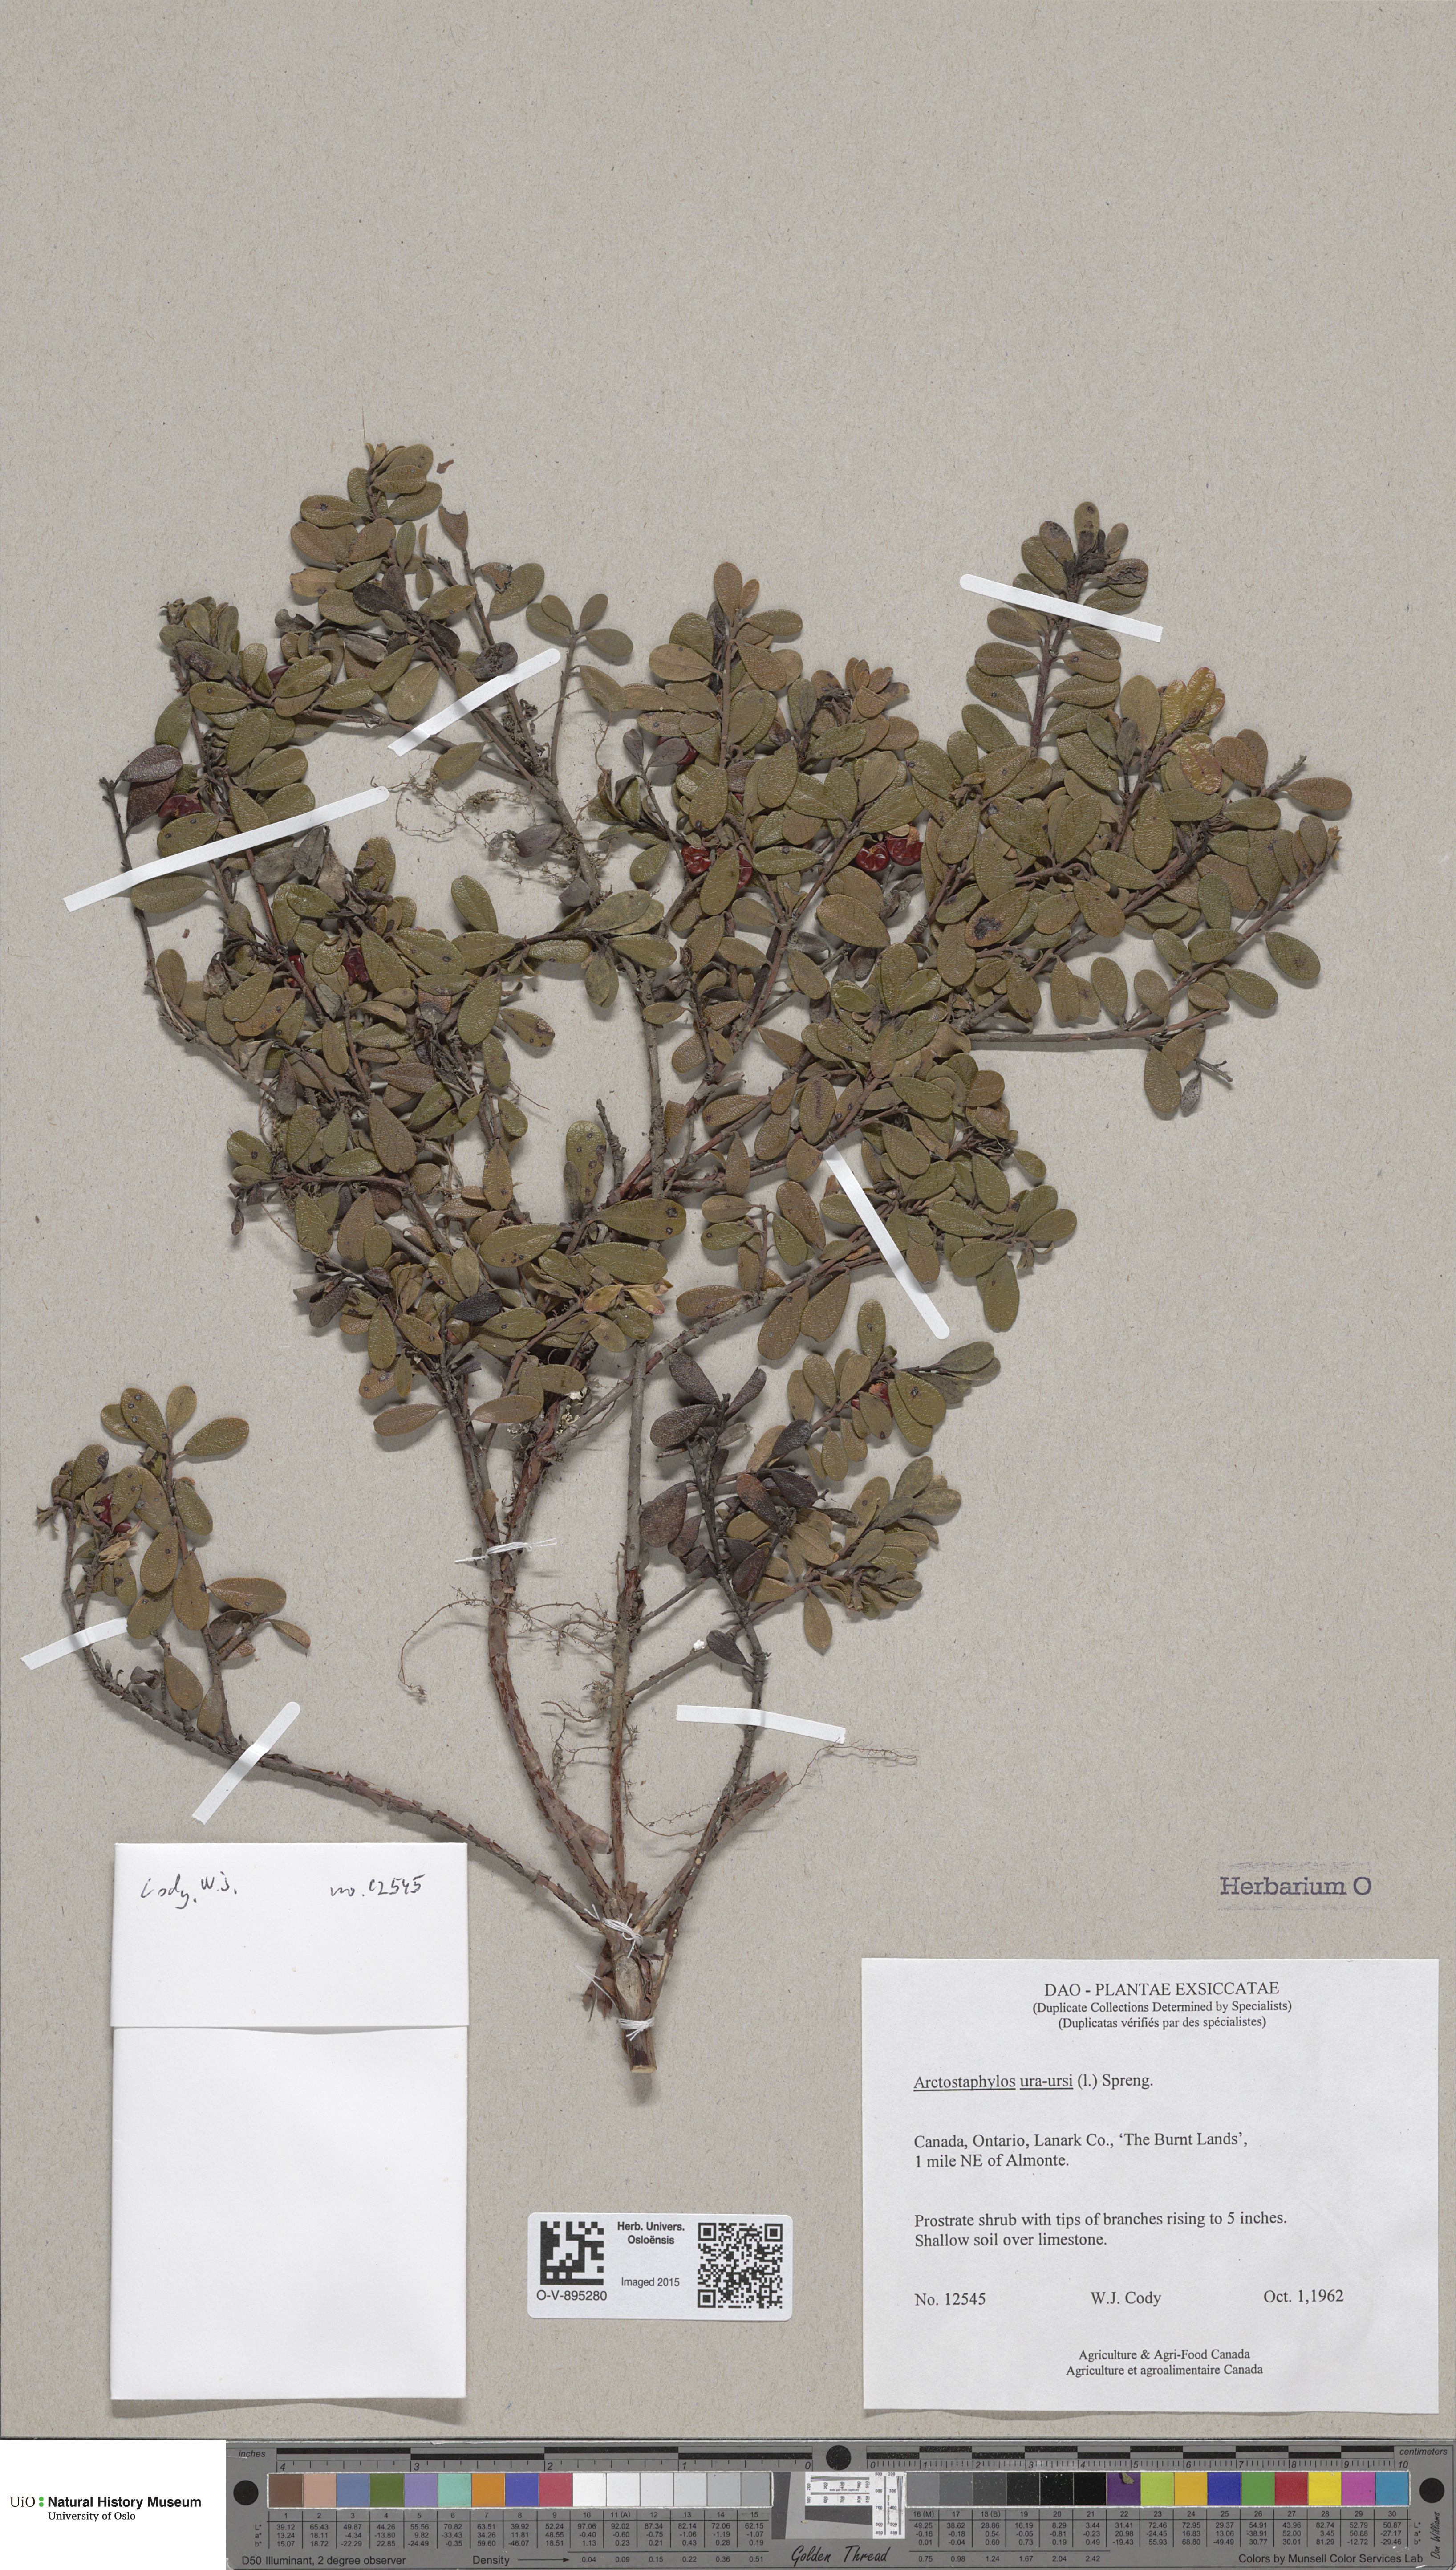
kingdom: Plantae
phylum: Tracheophyta
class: Magnoliopsida
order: Ericales
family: Ericaceae
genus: Arctostaphylos
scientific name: Arctostaphylos uva-ursi
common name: Bearberry
